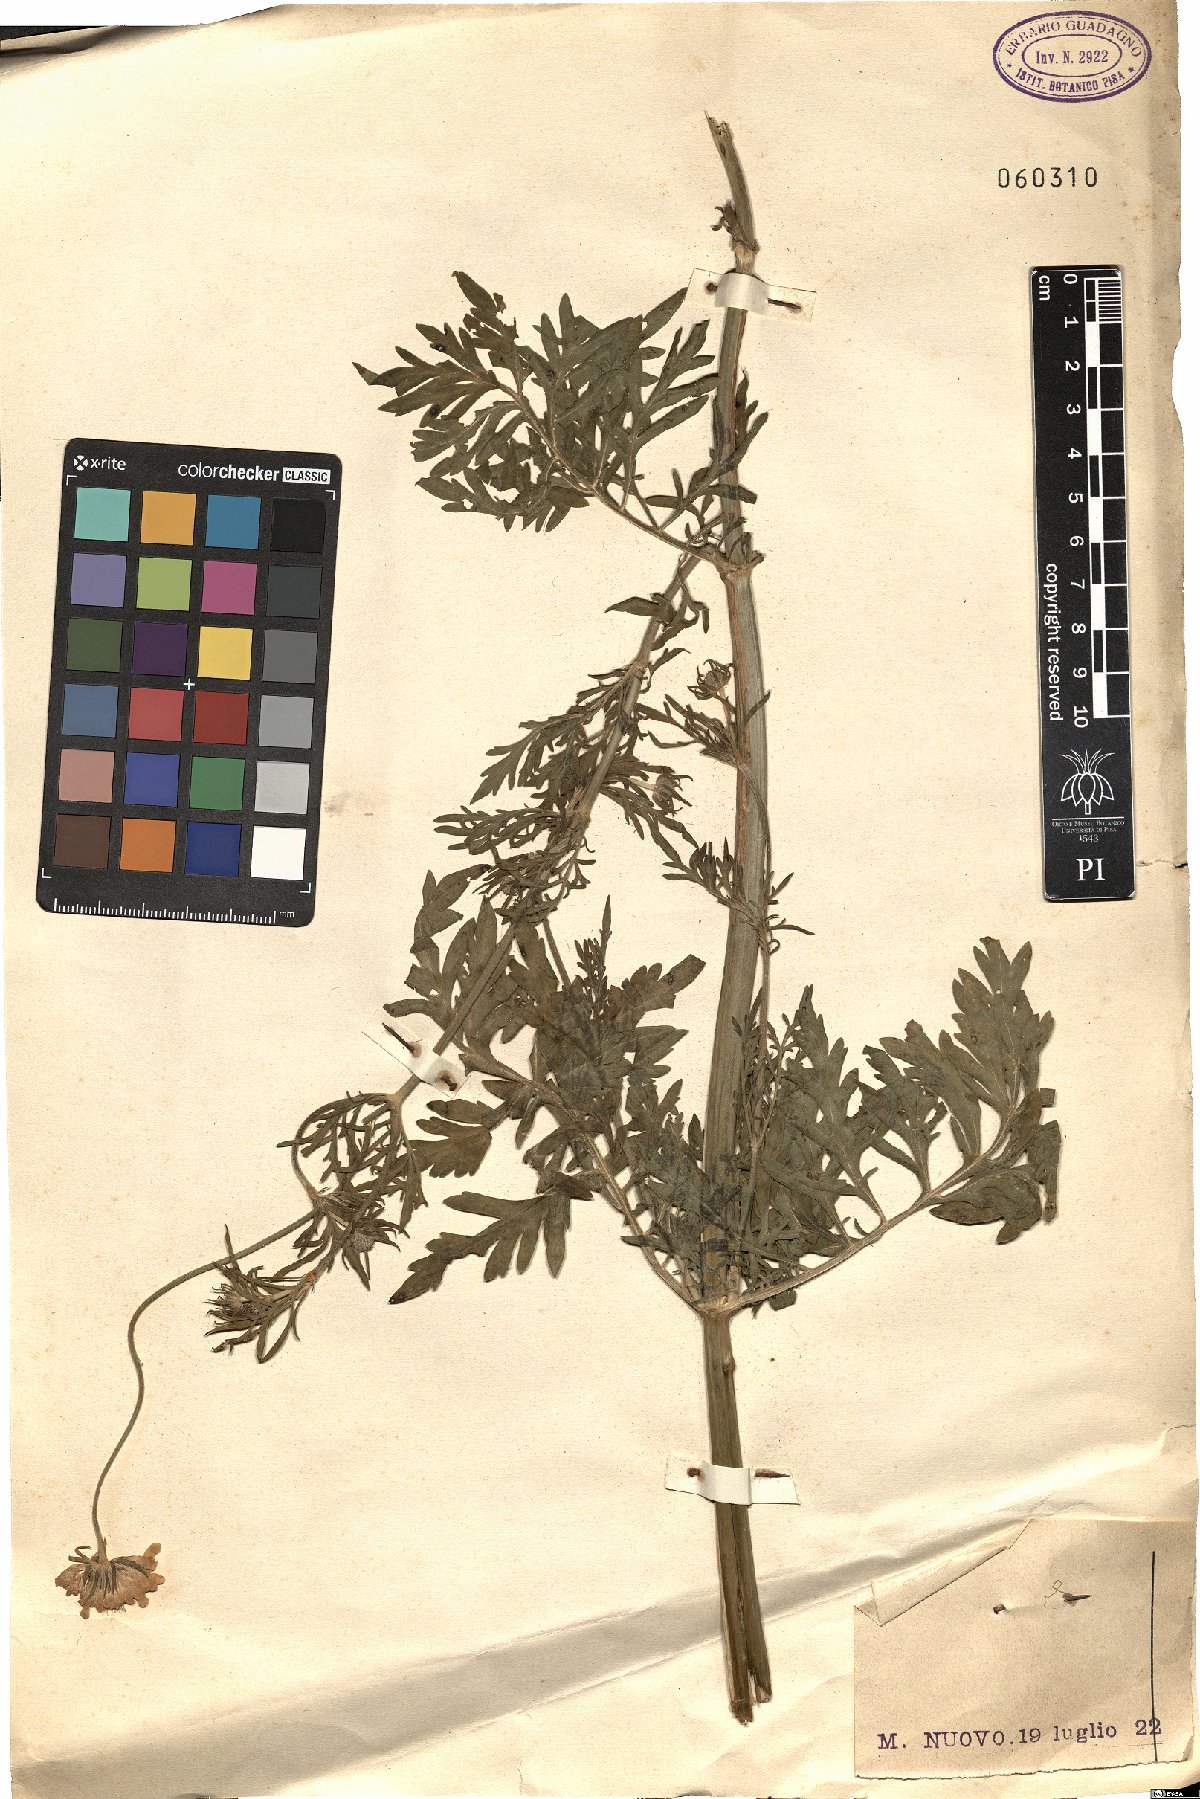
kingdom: Plantae
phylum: Tracheophyta
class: Magnoliopsida
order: Dipsacales
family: Caprifoliaceae
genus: Scabiosa
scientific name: Scabiosa
